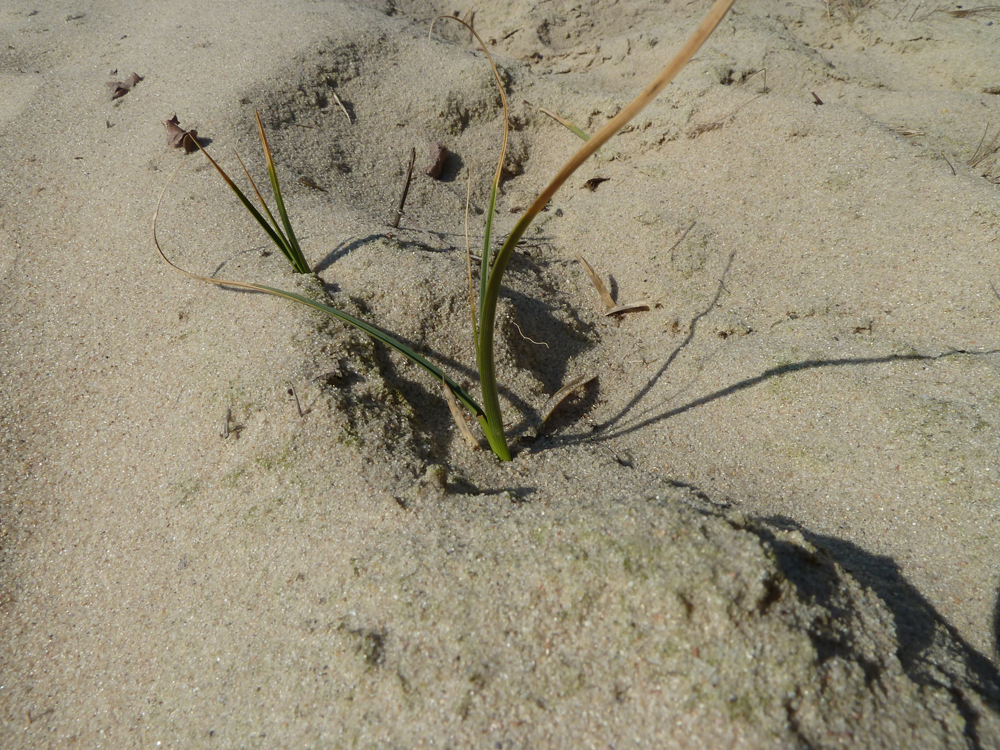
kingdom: Plantae
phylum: Tracheophyta
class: Liliopsida
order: Poales
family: Cyperaceae
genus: Carex
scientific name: Carex arenaria
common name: Sand sedge
